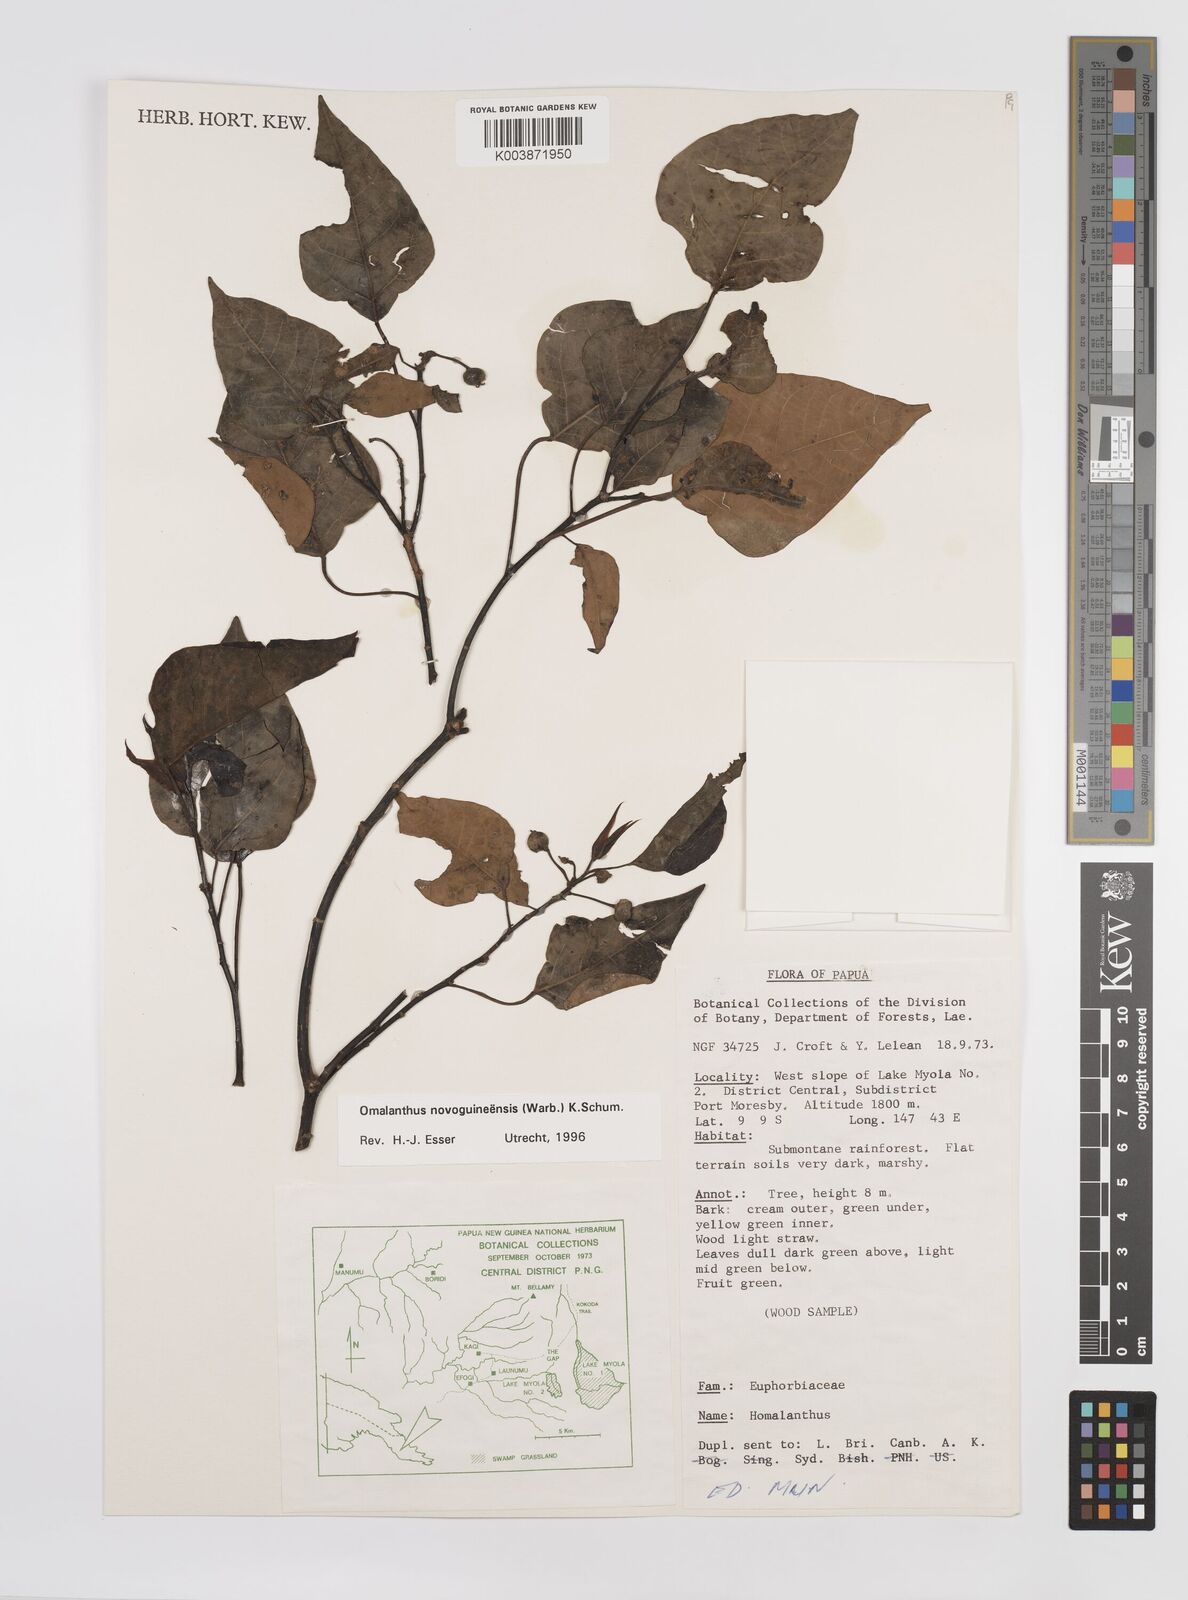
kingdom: Plantae
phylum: Tracheophyta
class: Magnoliopsida
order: Malpighiales
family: Euphorbiaceae
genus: Homalanthus
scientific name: Homalanthus novoguineensis
